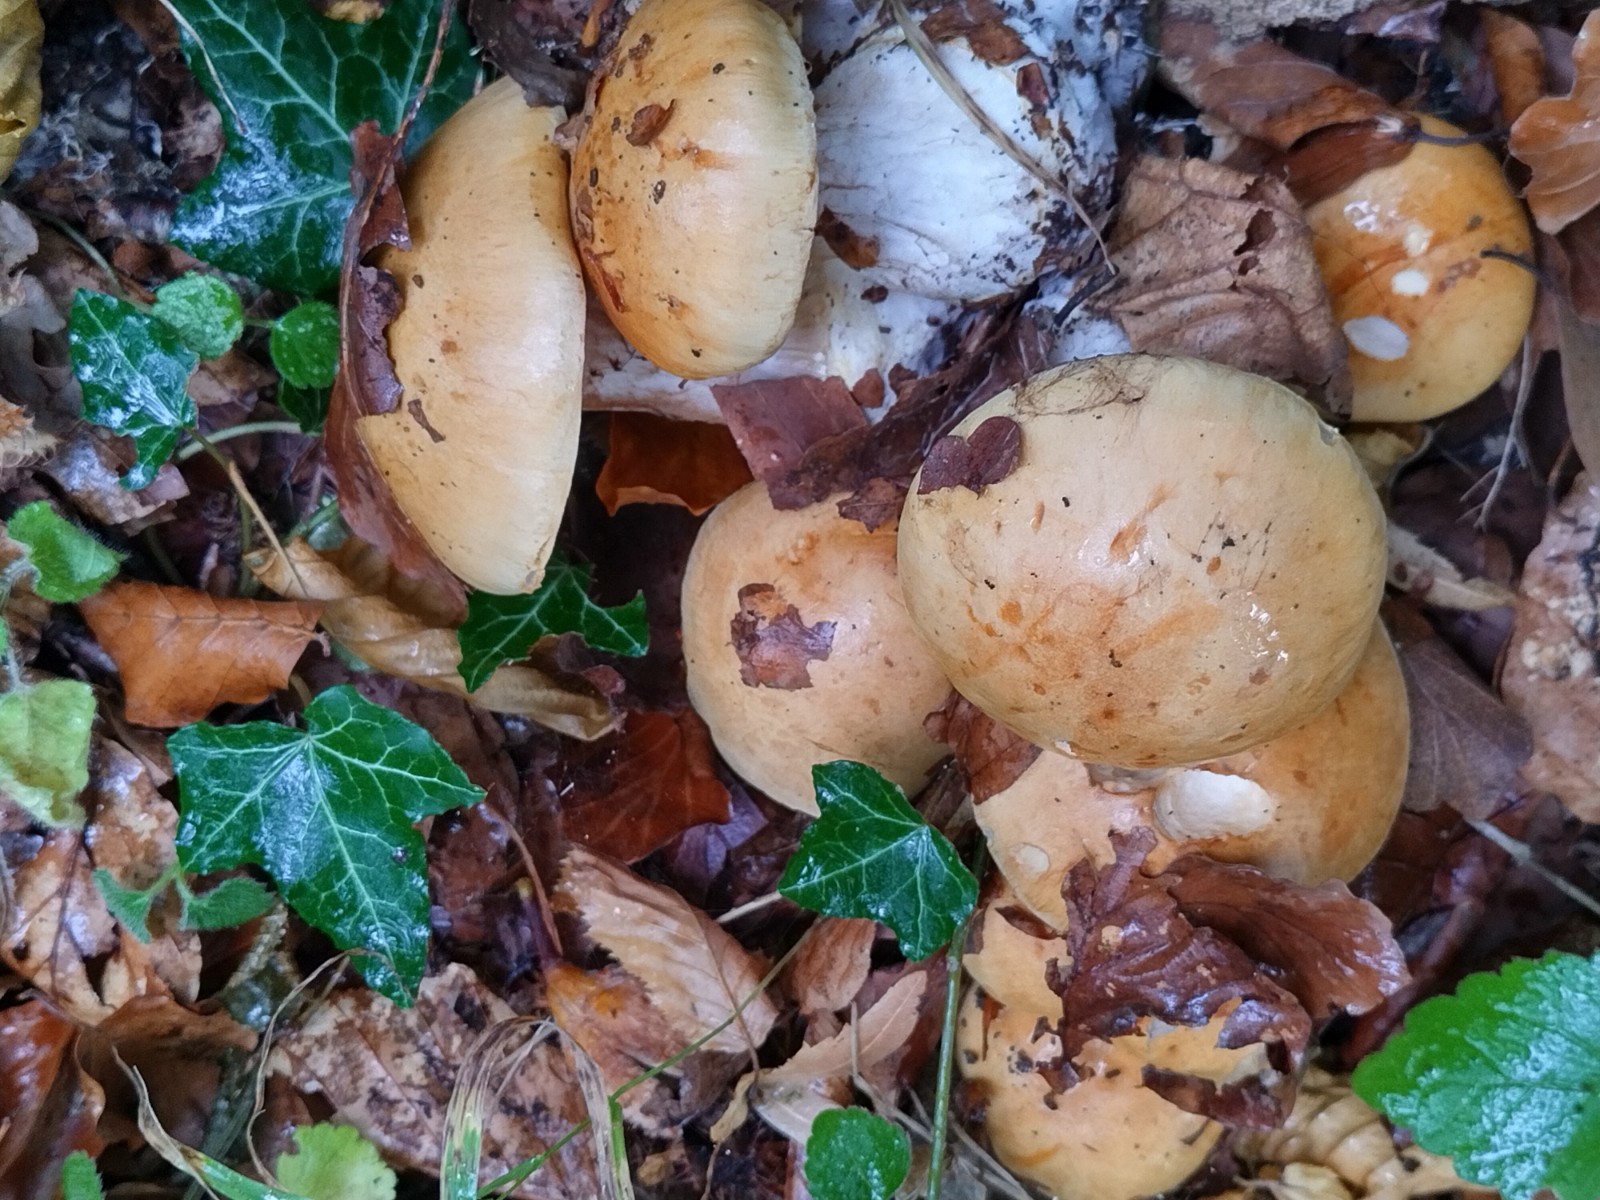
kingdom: Fungi
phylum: Basidiomycota
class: Agaricomycetes
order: Agaricales
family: Cortinariaceae
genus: Phlegmacium
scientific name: Phlegmacium
